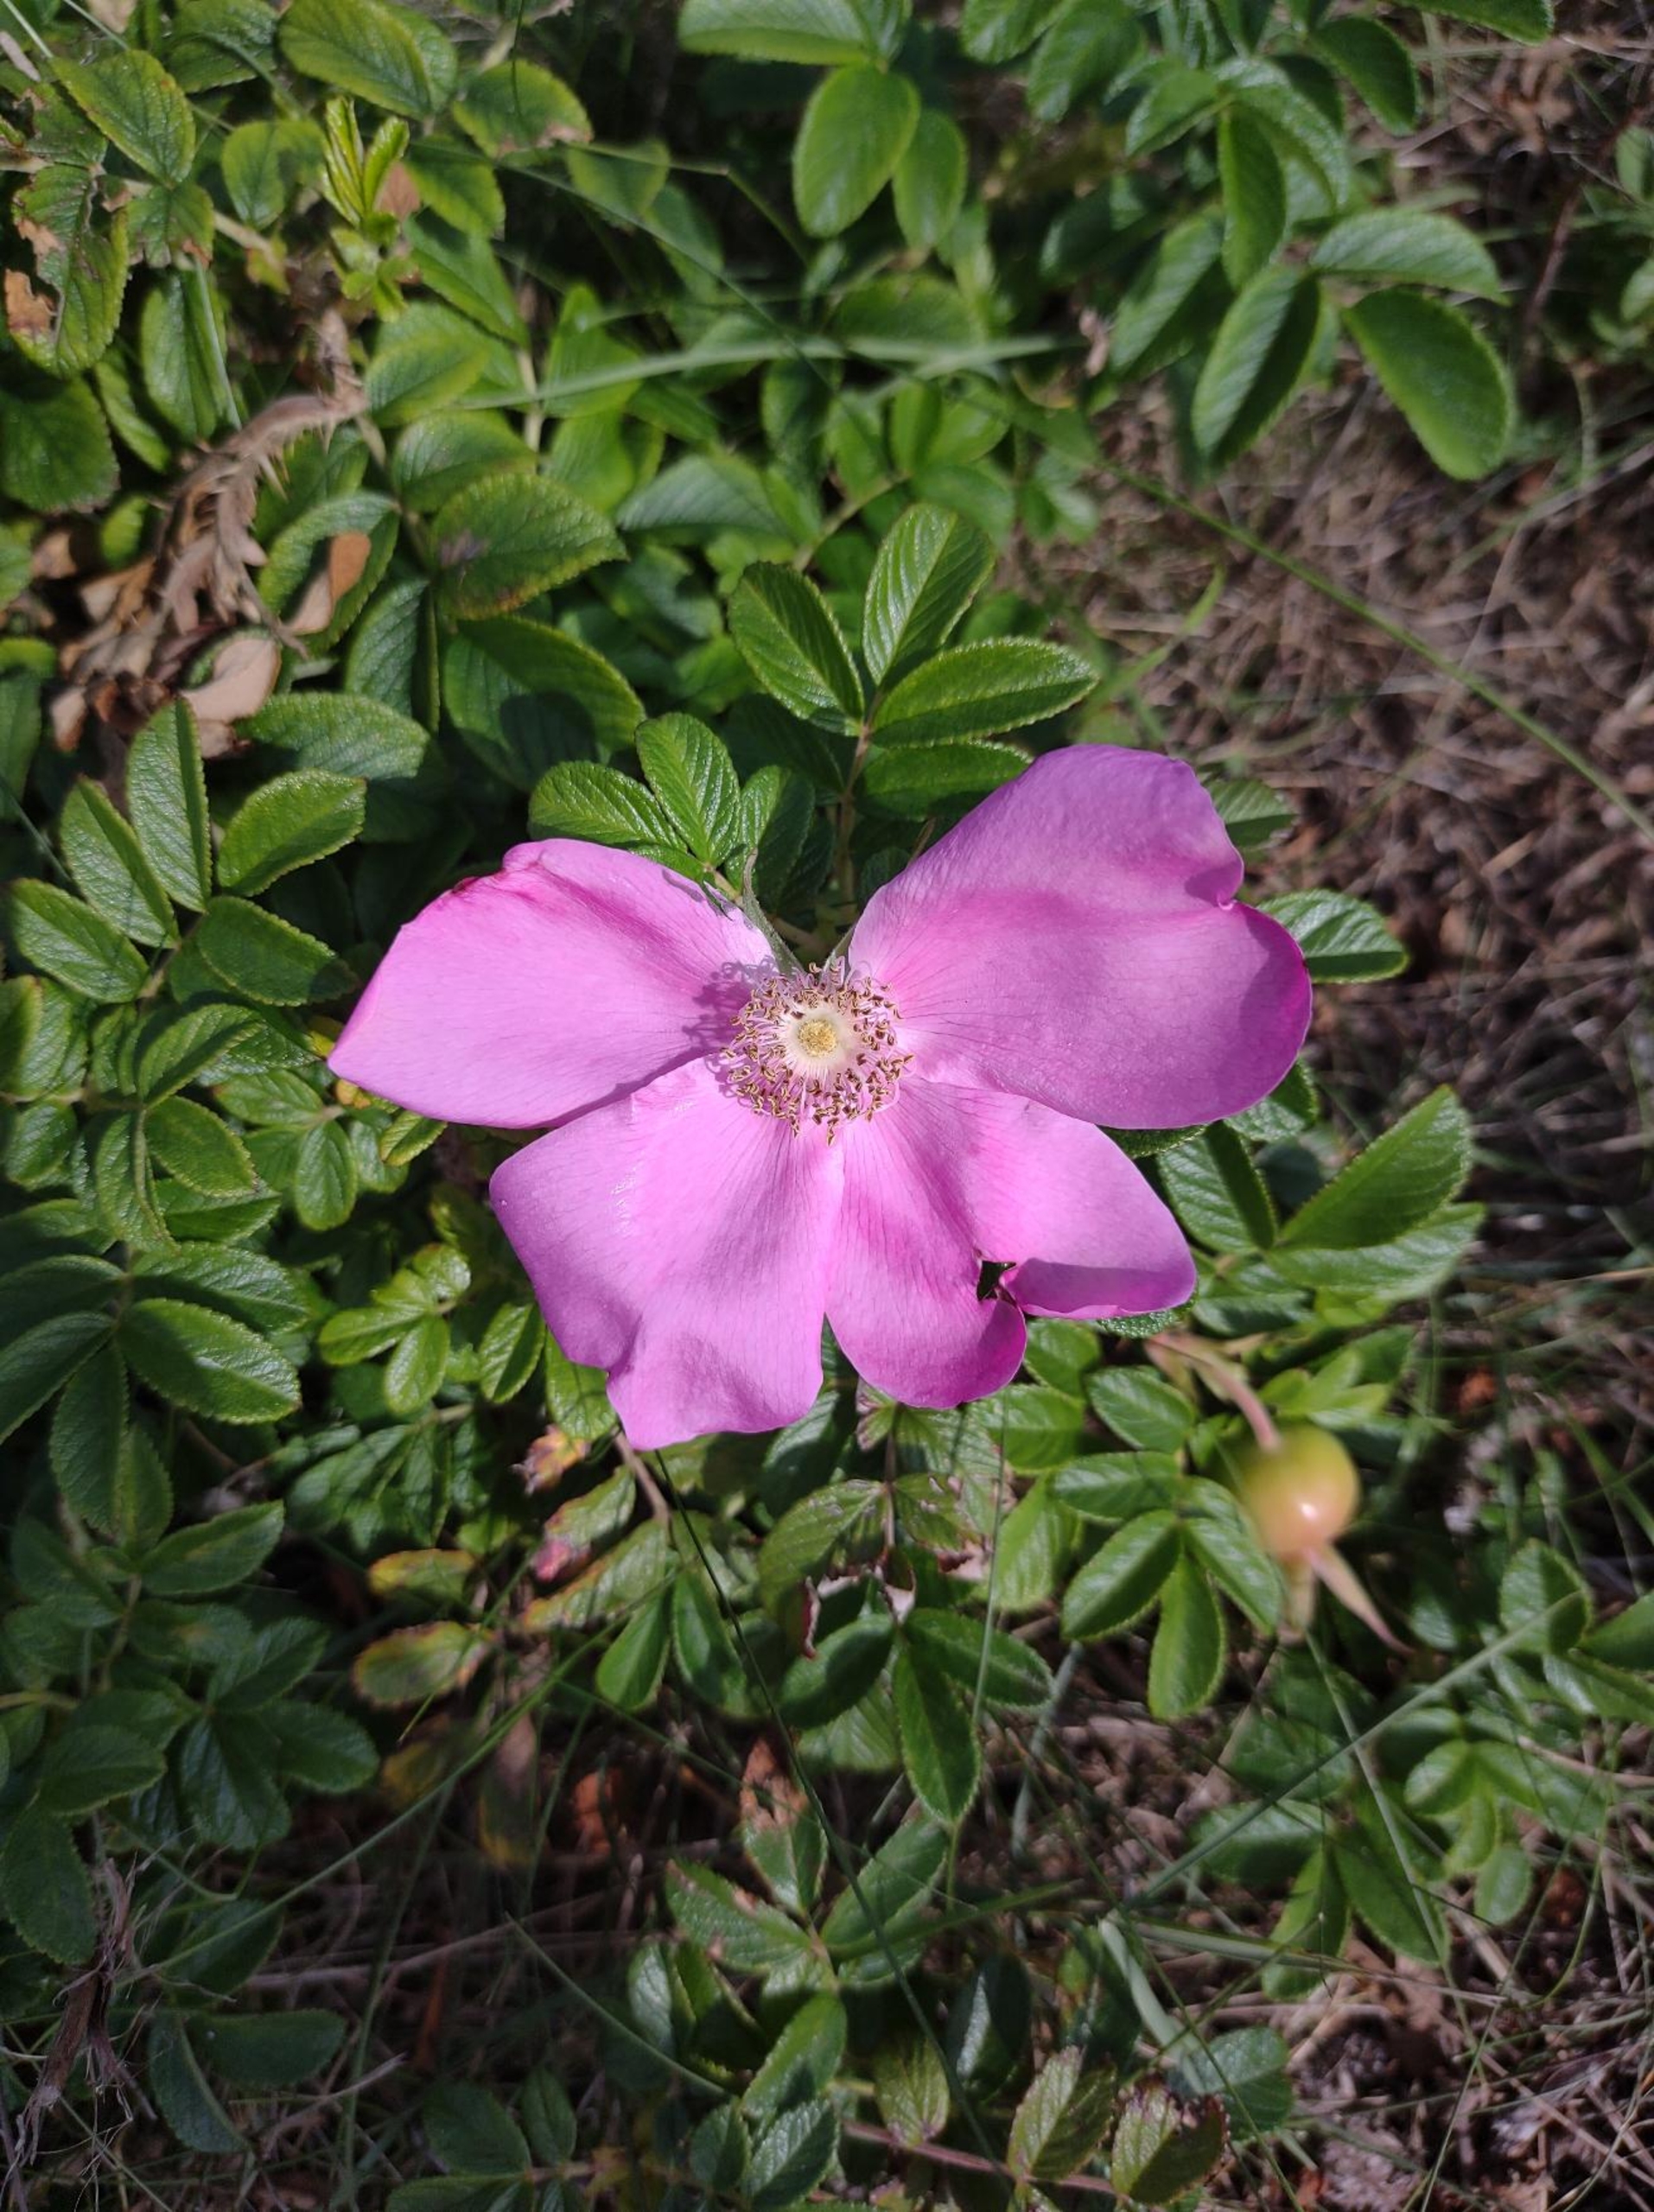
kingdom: Plantae
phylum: Tracheophyta
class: Magnoliopsida
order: Rosales
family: Rosaceae
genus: Rosa
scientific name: Rosa rugosa
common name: Rynket rose
